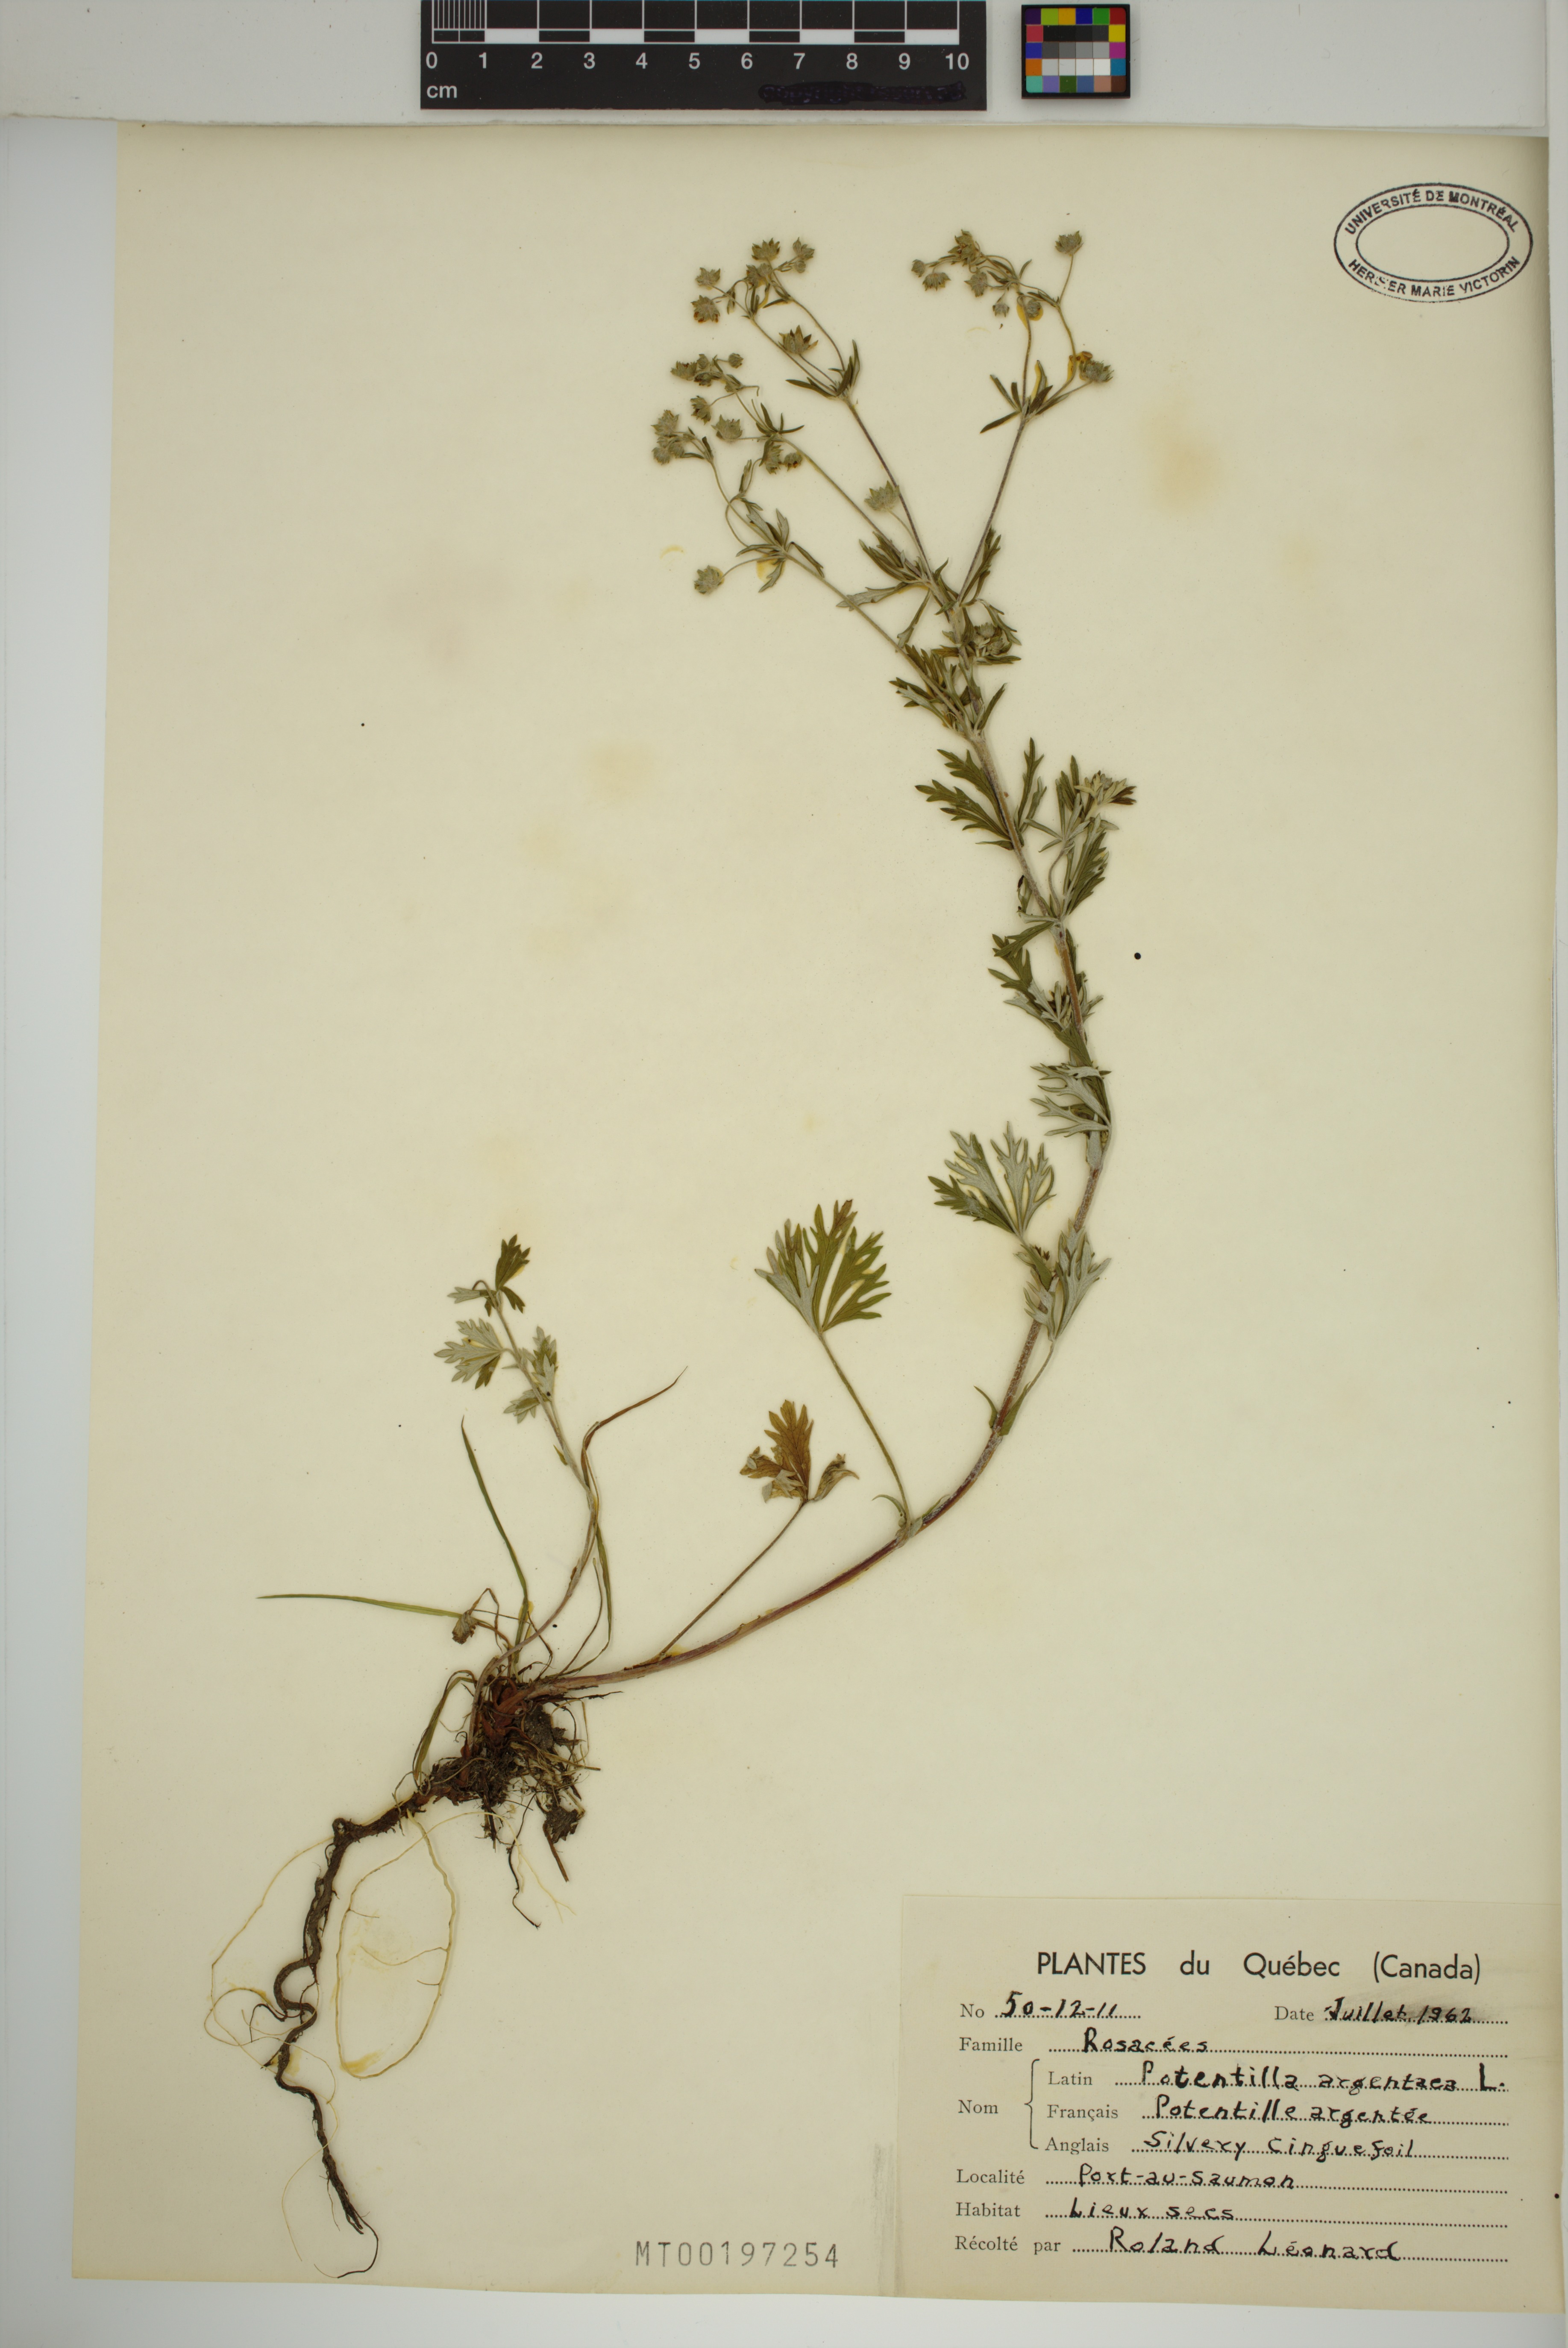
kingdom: Plantae
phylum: Tracheophyta
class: Magnoliopsida
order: Rosales
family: Rosaceae
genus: Potentilla
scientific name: Potentilla argentea
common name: Hoary cinquefoil
